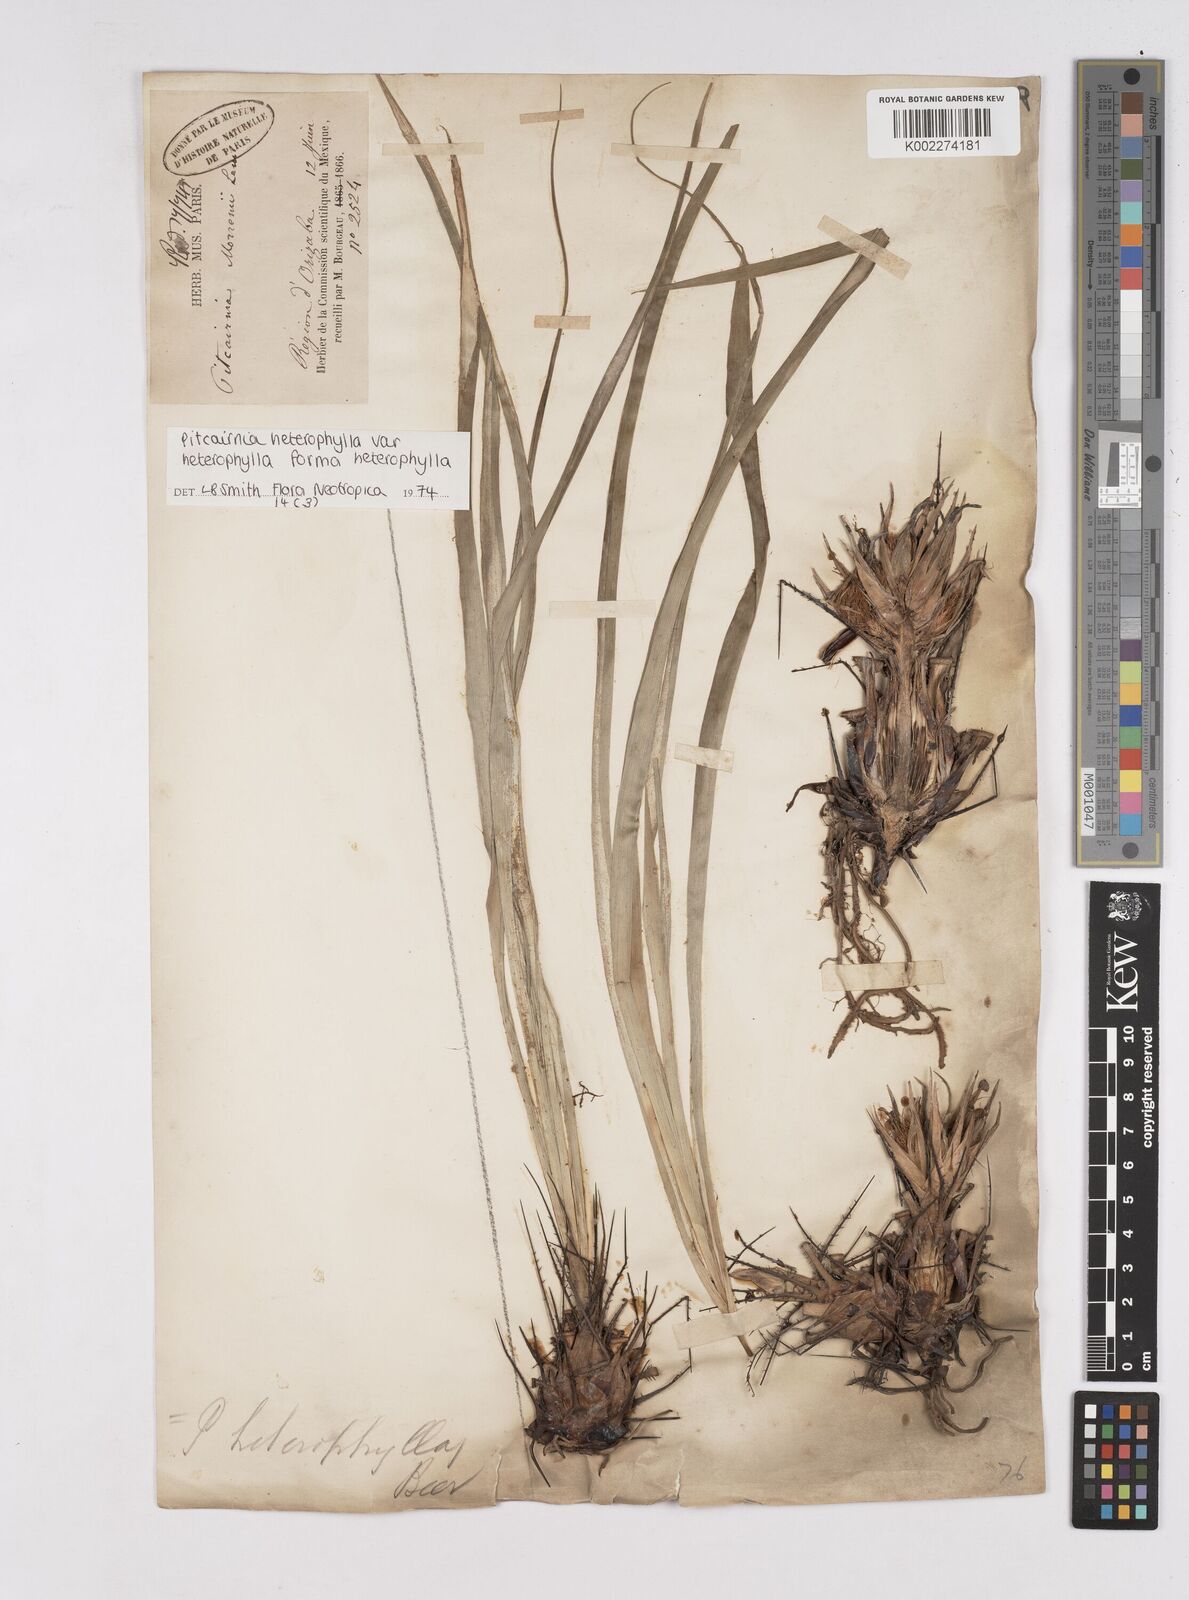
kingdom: Plantae
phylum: Tracheophyta
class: Liliopsida
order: Poales
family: Bromeliaceae
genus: Pitcairnia
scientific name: Pitcairnia heterophylla
